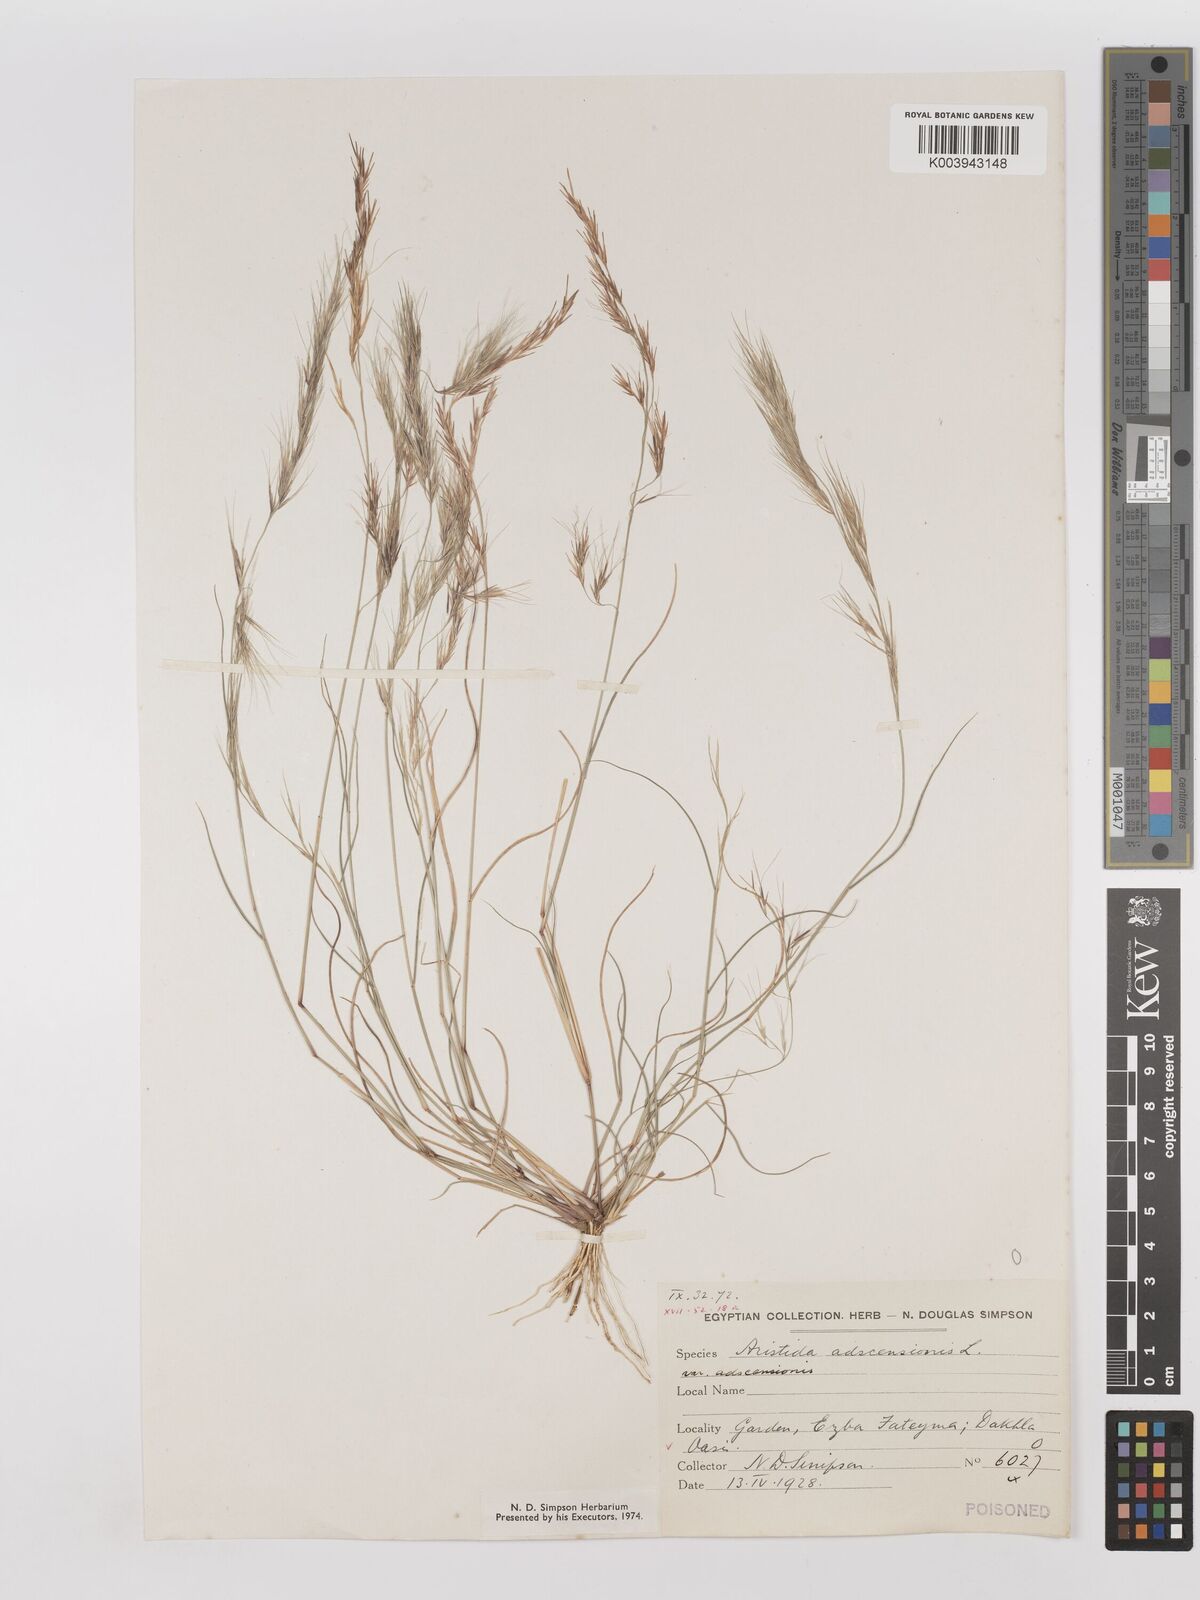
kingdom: Plantae
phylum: Tracheophyta
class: Liliopsida
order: Poales
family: Poaceae
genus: Aristida
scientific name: Aristida adscensionis
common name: Sixweeks threeawn
